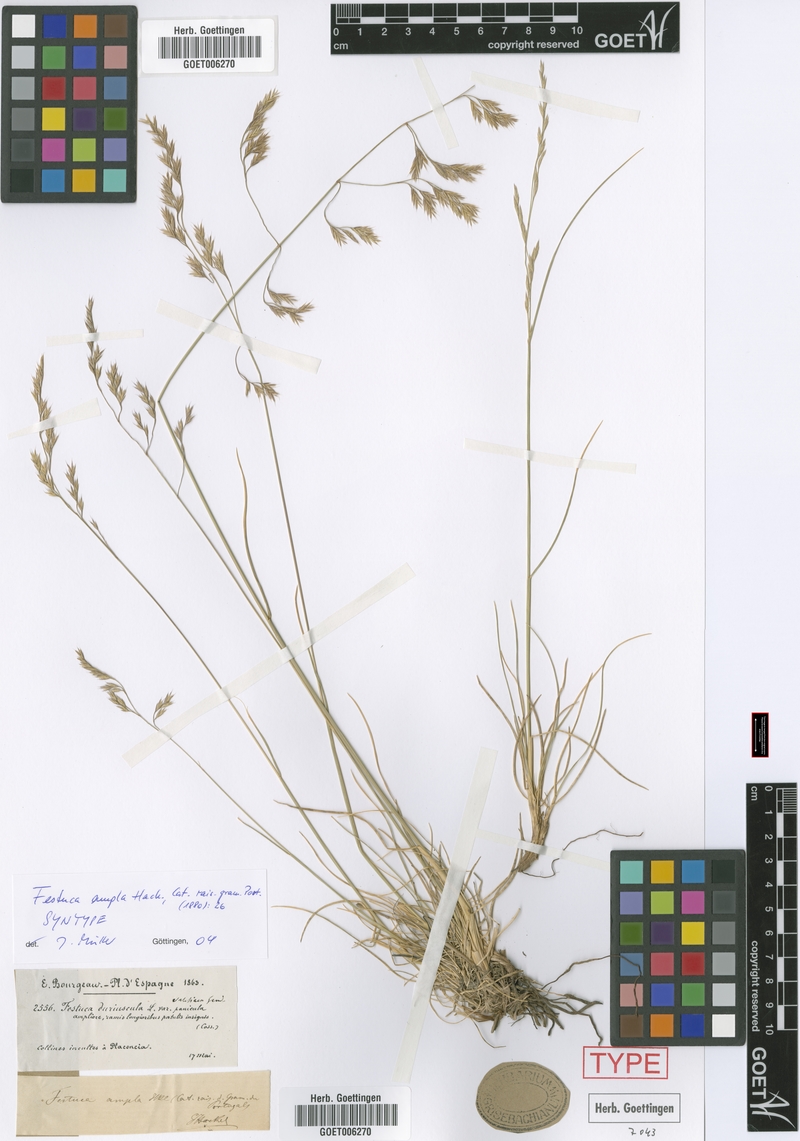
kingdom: Plantae
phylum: Tracheophyta
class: Liliopsida
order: Poales
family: Poaceae
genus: Festuca
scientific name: Festuca ampla
